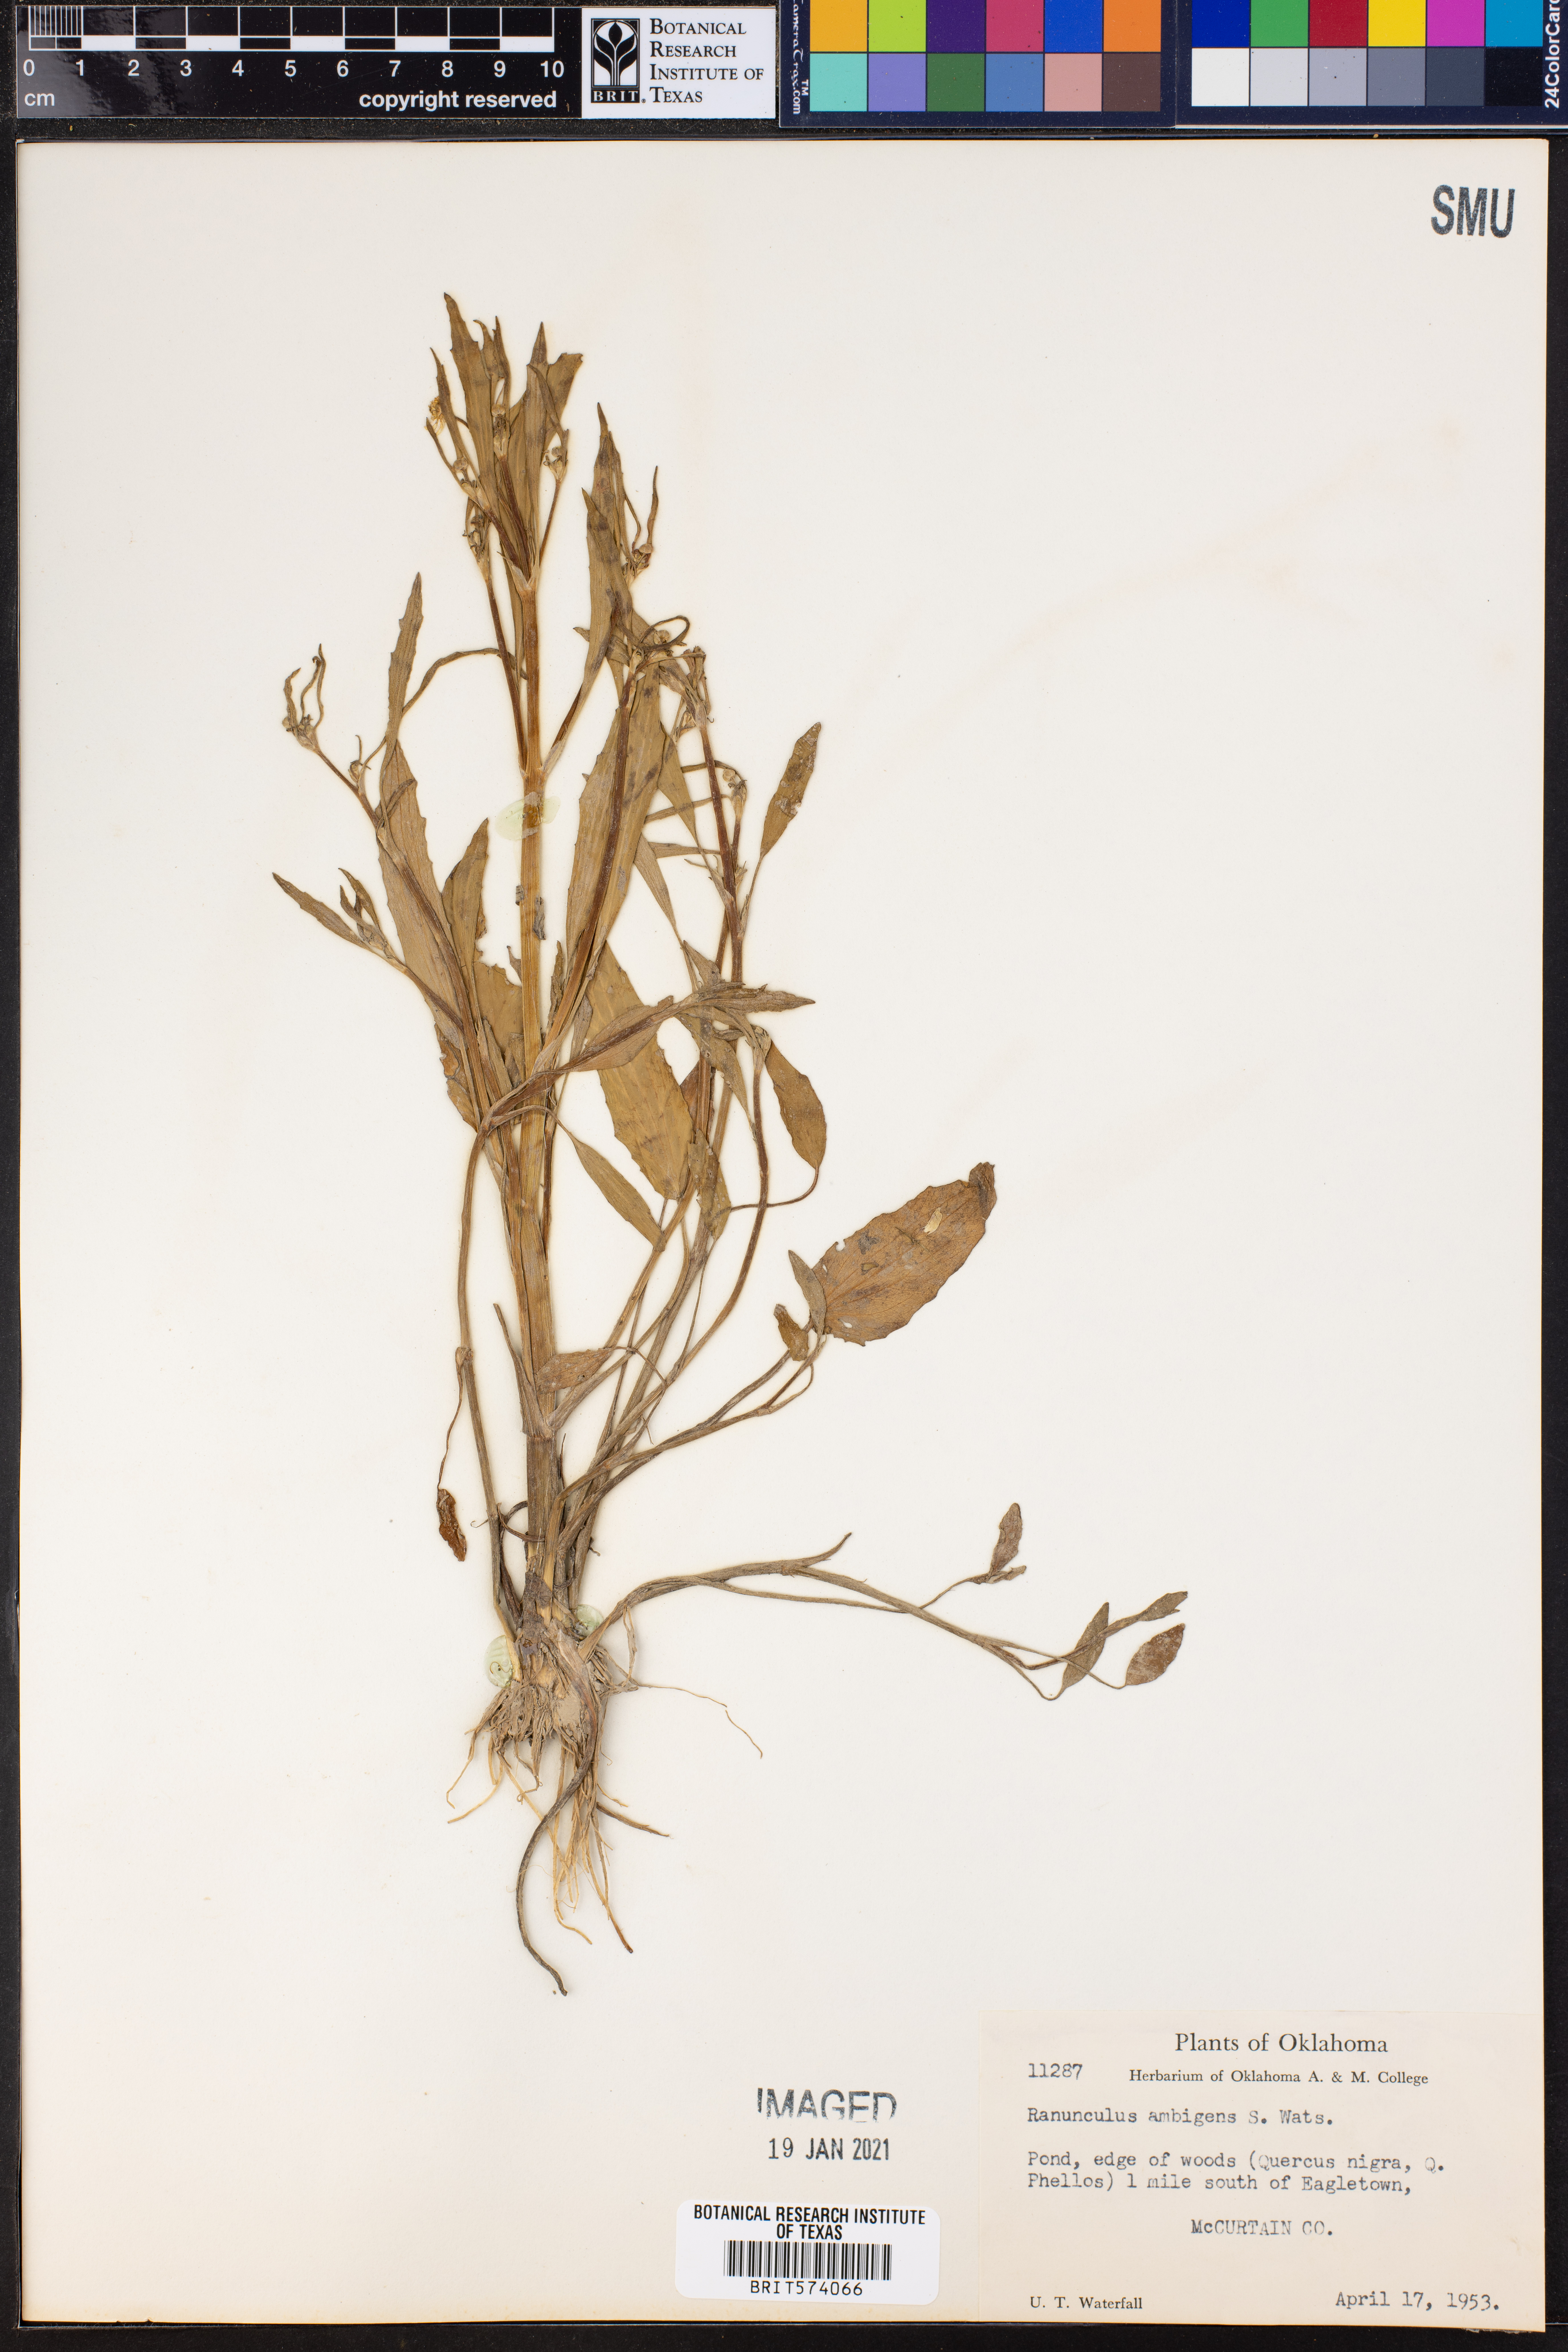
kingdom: Plantae
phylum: Tracheophyta
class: Magnoliopsida
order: Ranunculales
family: Ranunculaceae
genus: Ranunculus
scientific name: Ranunculus ambigens
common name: Water-plantain crowfoot
